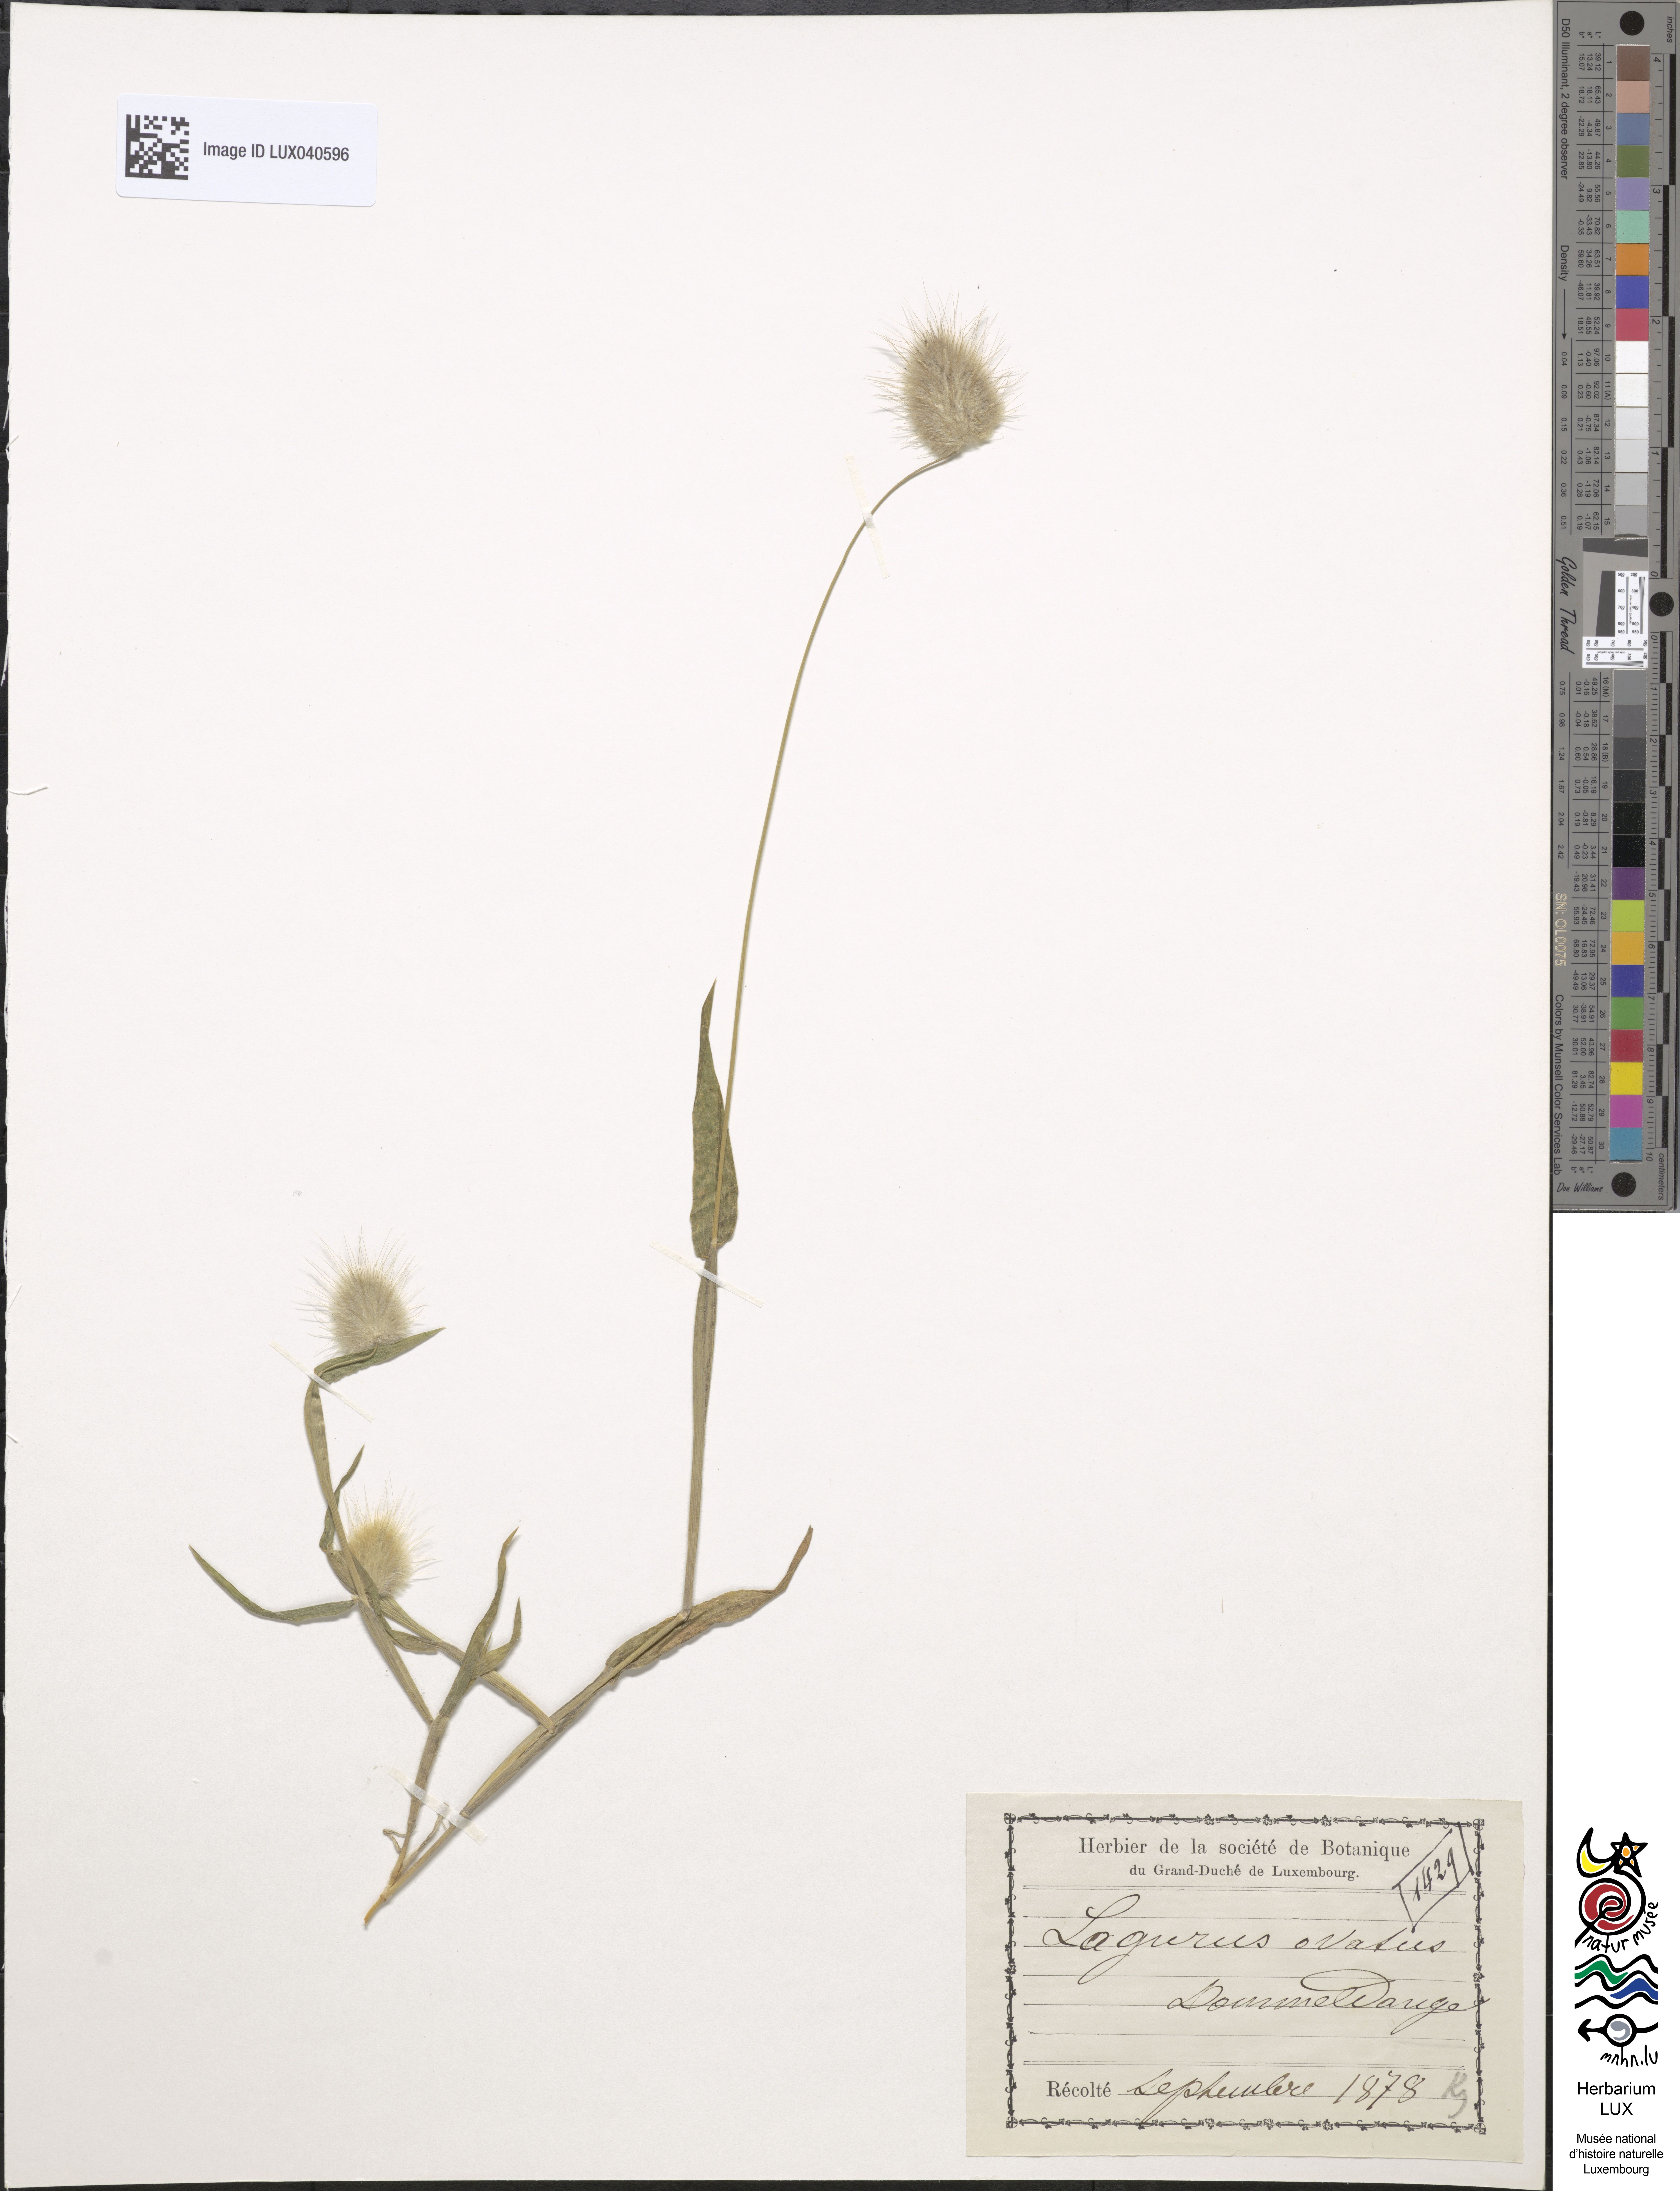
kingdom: Plantae
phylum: Tracheophyta
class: Liliopsida
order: Poales
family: Poaceae
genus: Lagurus
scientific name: Lagurus ovatus
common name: Hare's-tail
